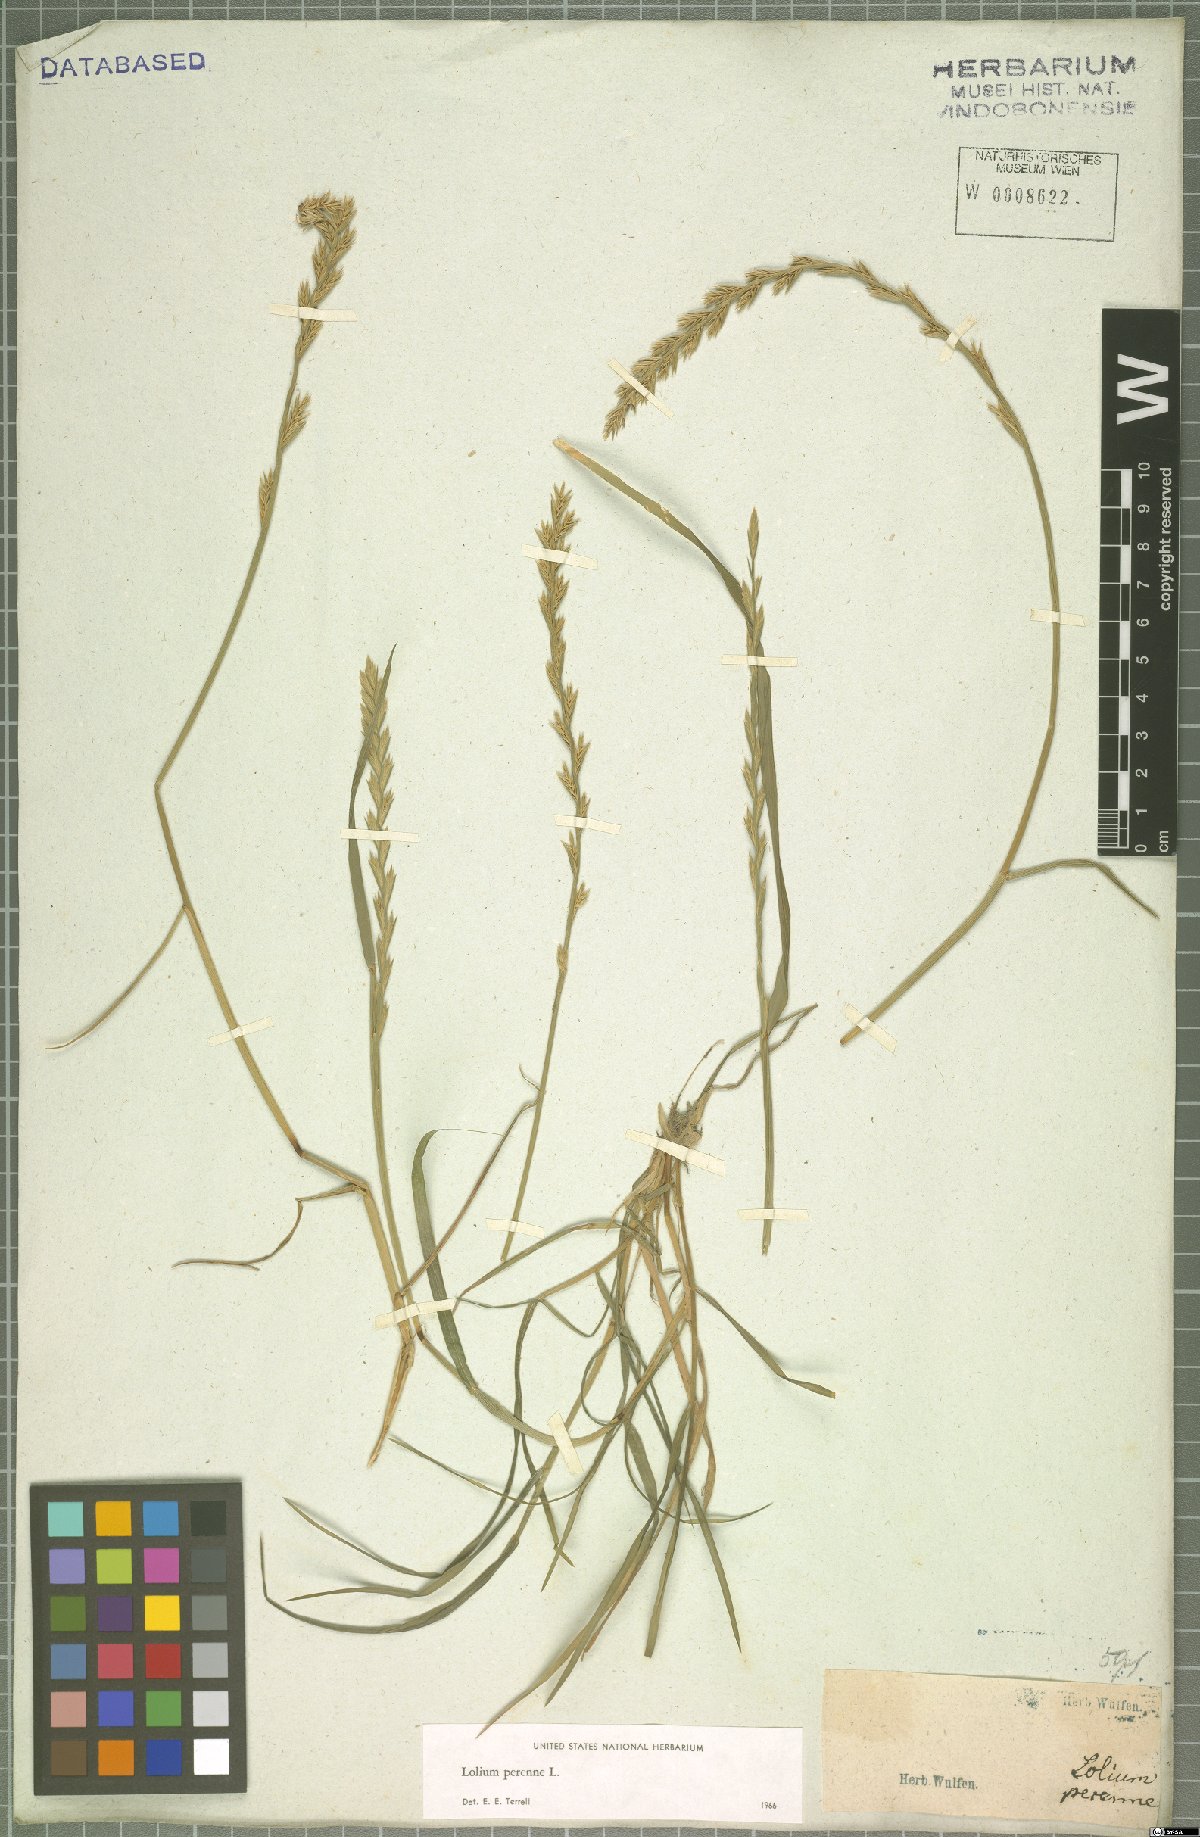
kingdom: Plantae
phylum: Tracheophyta
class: Liliopsida
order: Poales
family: Poaceae
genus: Lolium
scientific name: Lolium perenne
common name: Perennial ryegrass
